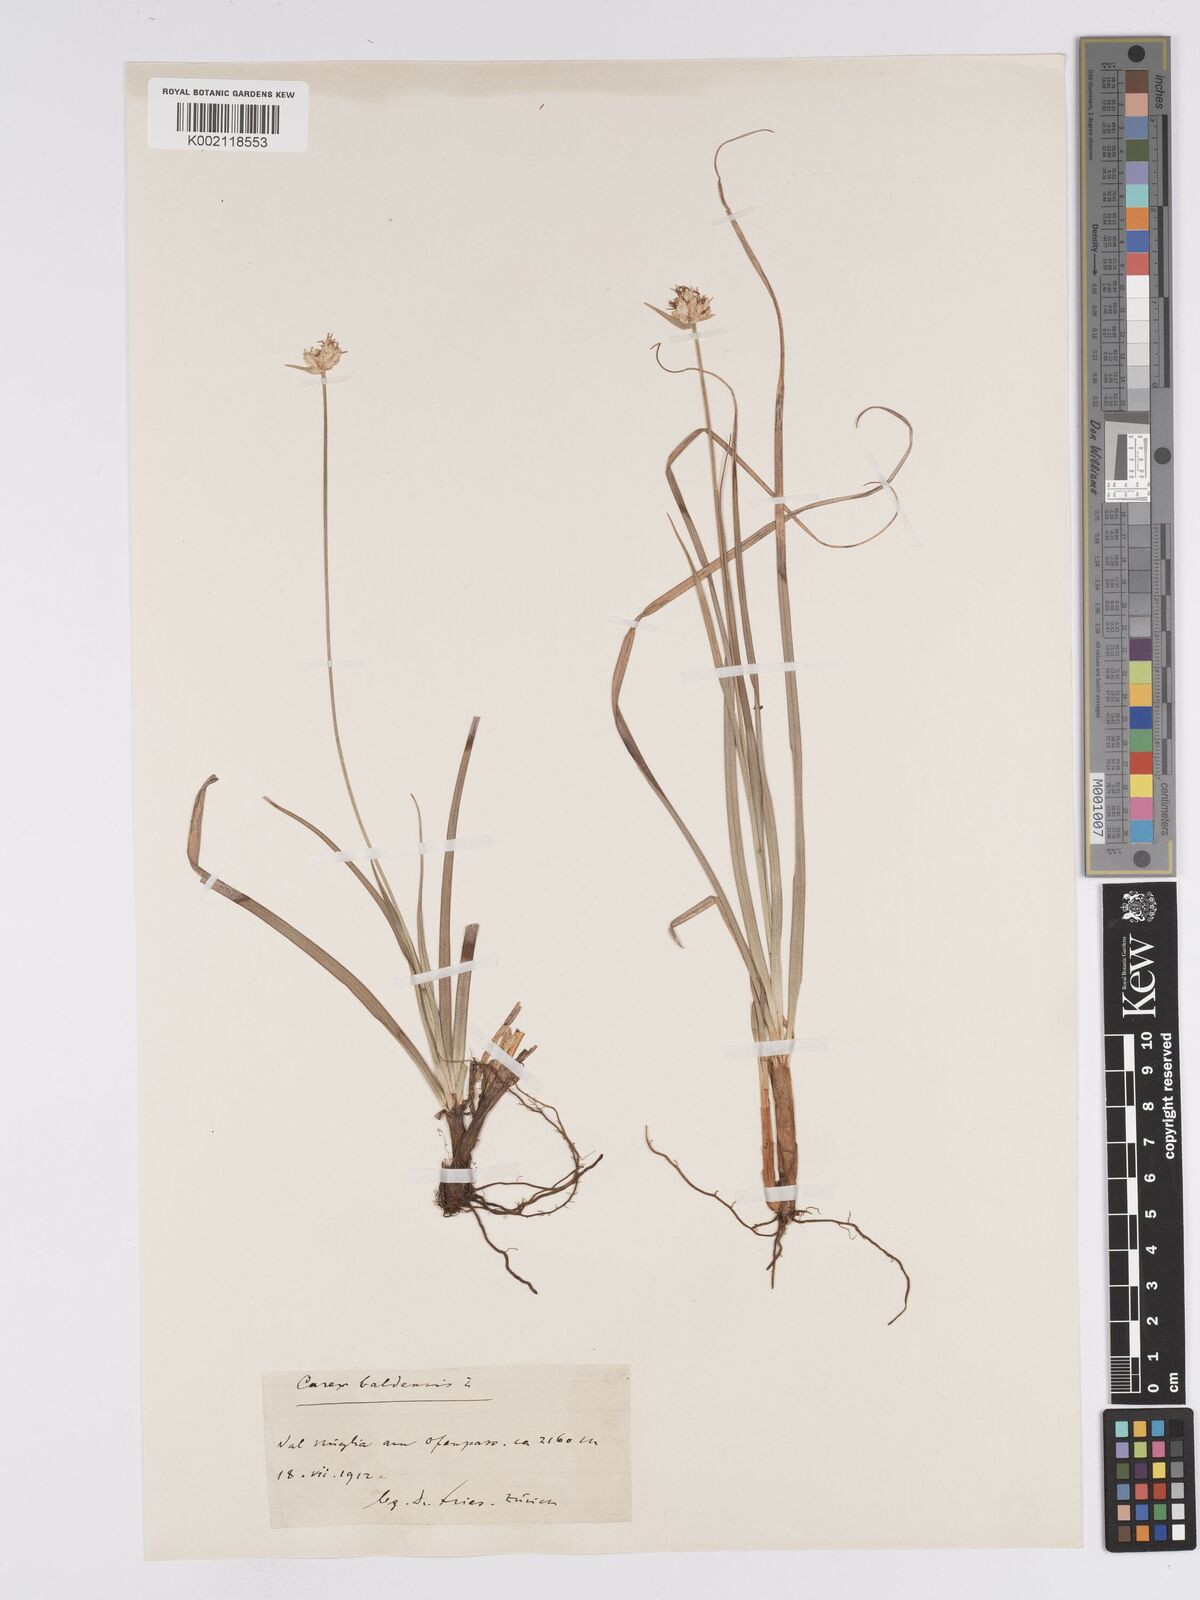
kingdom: Plantae
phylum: Tracheophyta
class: Liliopsida
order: Poales
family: Cyperaceae
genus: Carex
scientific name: Carex baldensis
